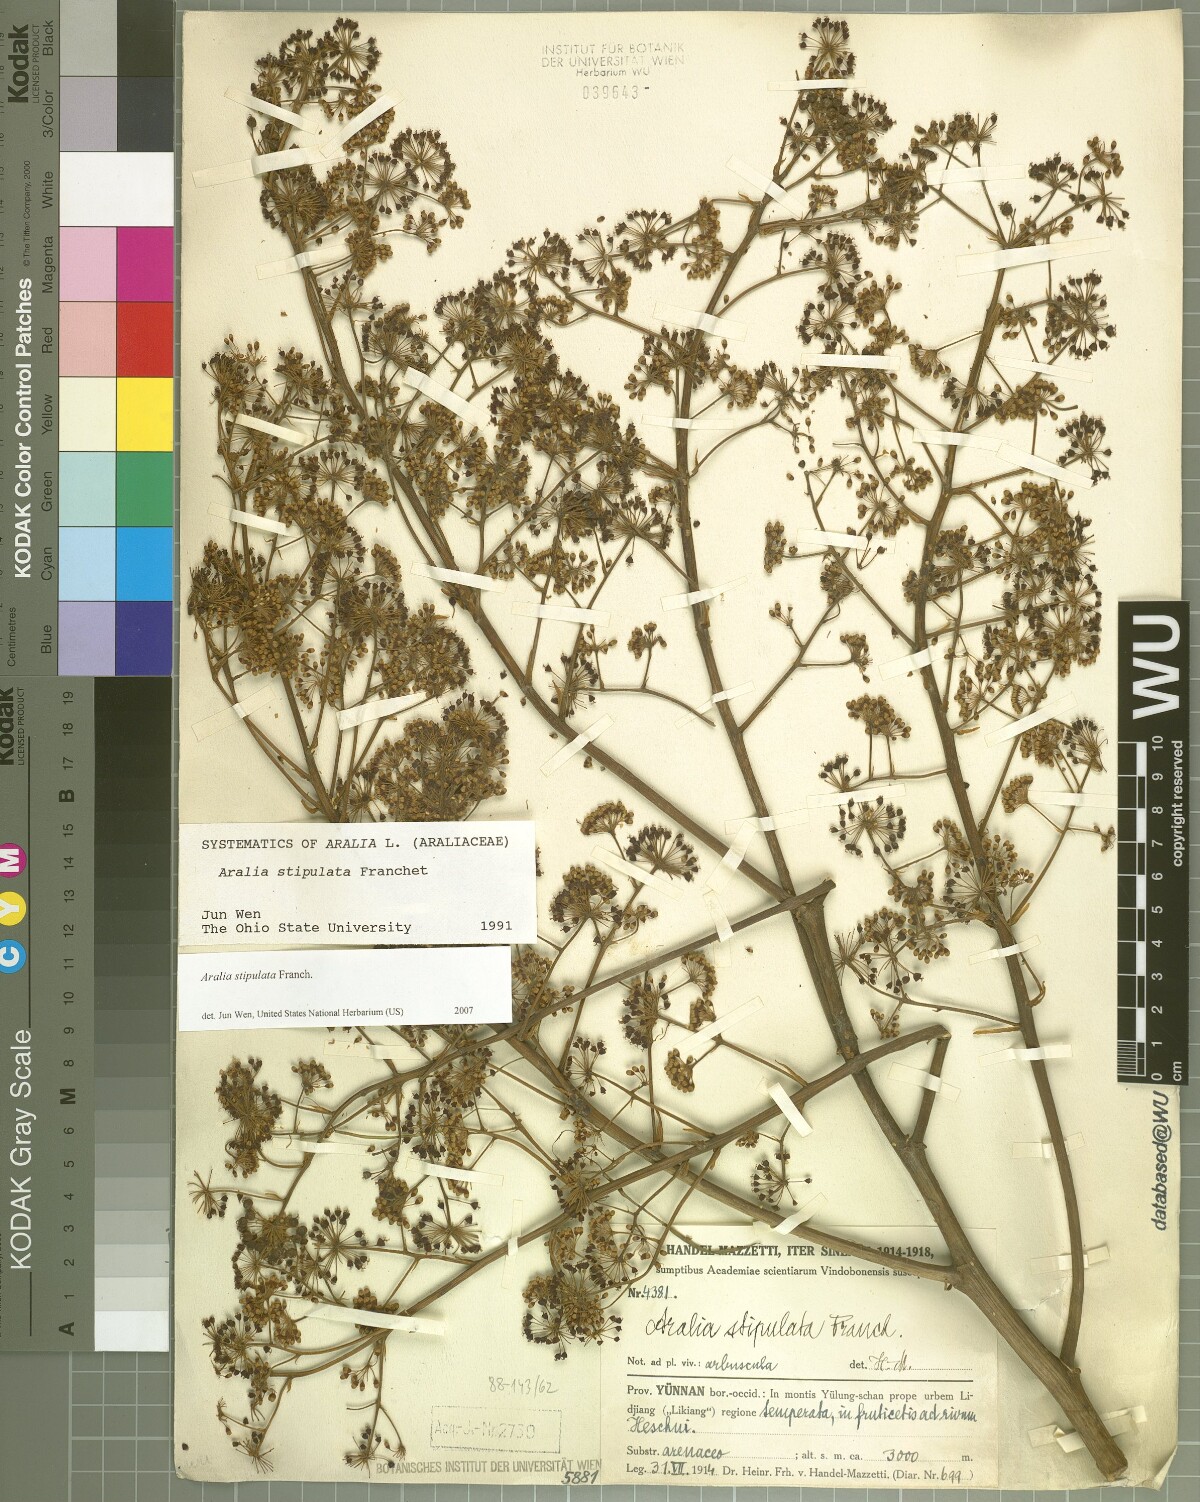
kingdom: Plantae
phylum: Tracheophyta
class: Magnoliopsida
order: Apiales
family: Araliaceae
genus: Aralia
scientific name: Aralia stipulata
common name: Chinese angelica-tree
